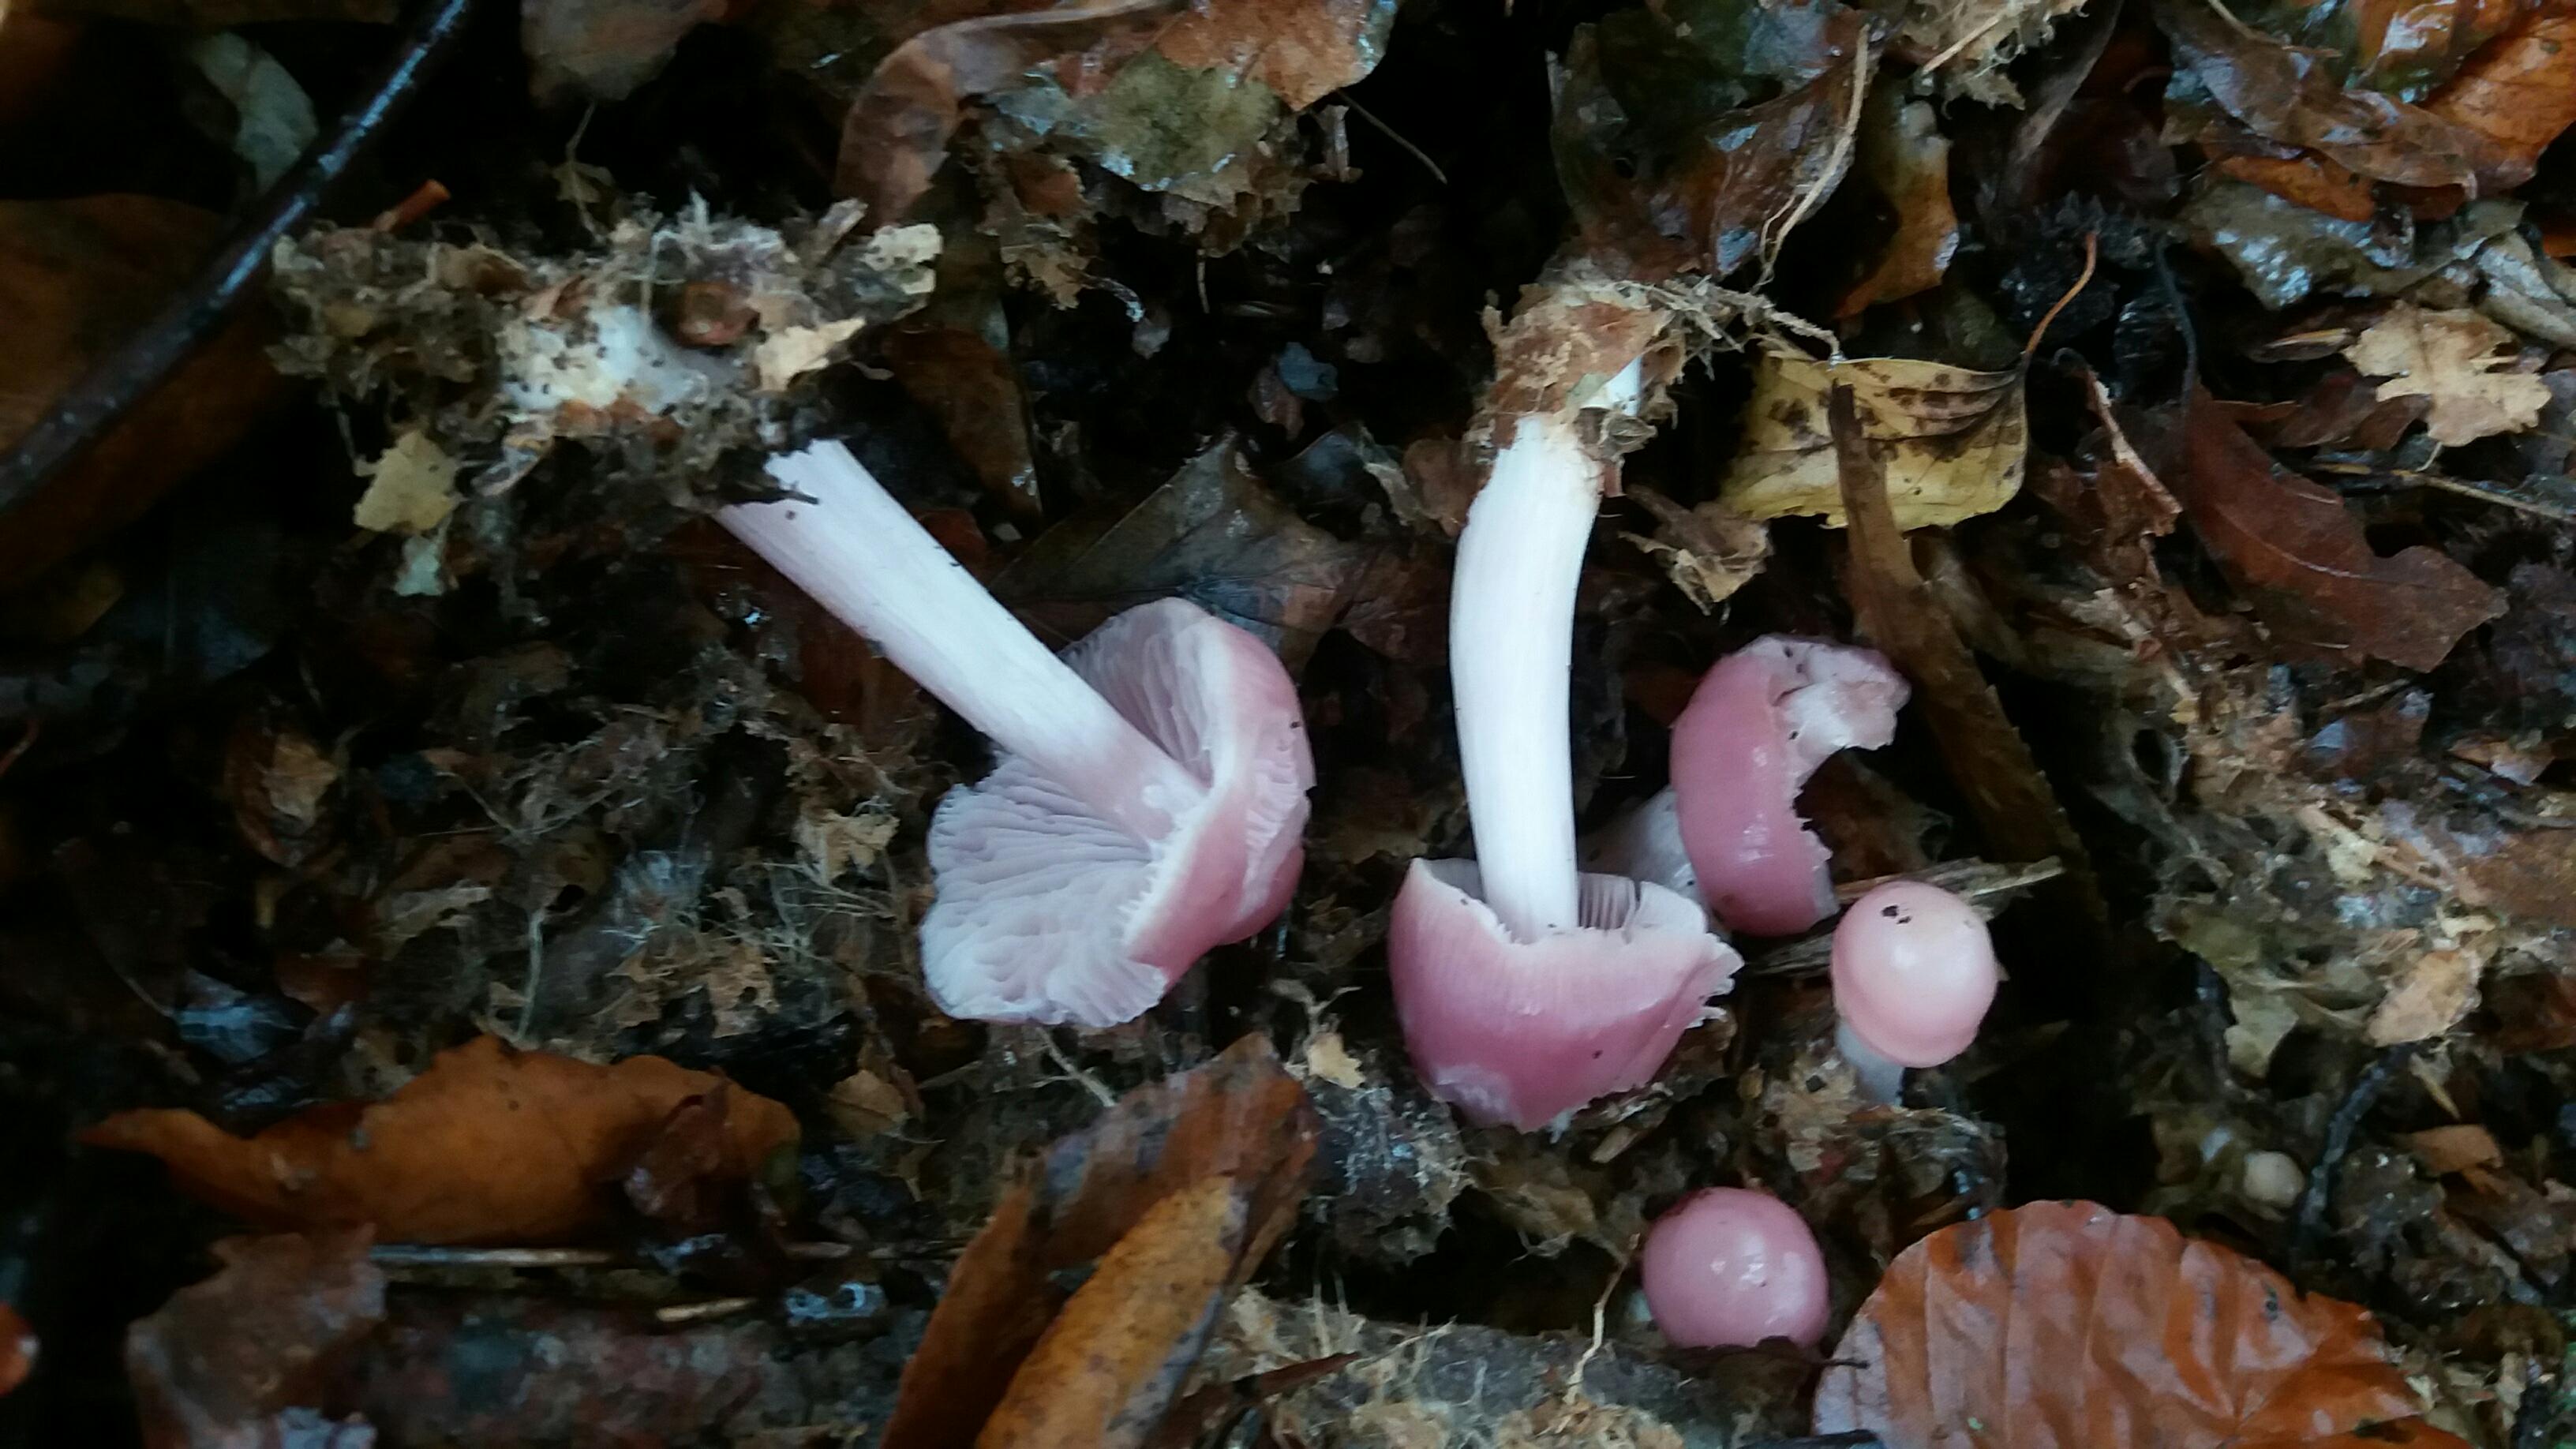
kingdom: Fungi
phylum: Basidiomycota
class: Agaricomycetes
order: Agaricales
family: Mycenaceae
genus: Mycena
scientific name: Mycena rosea
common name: rosa huesvamp
